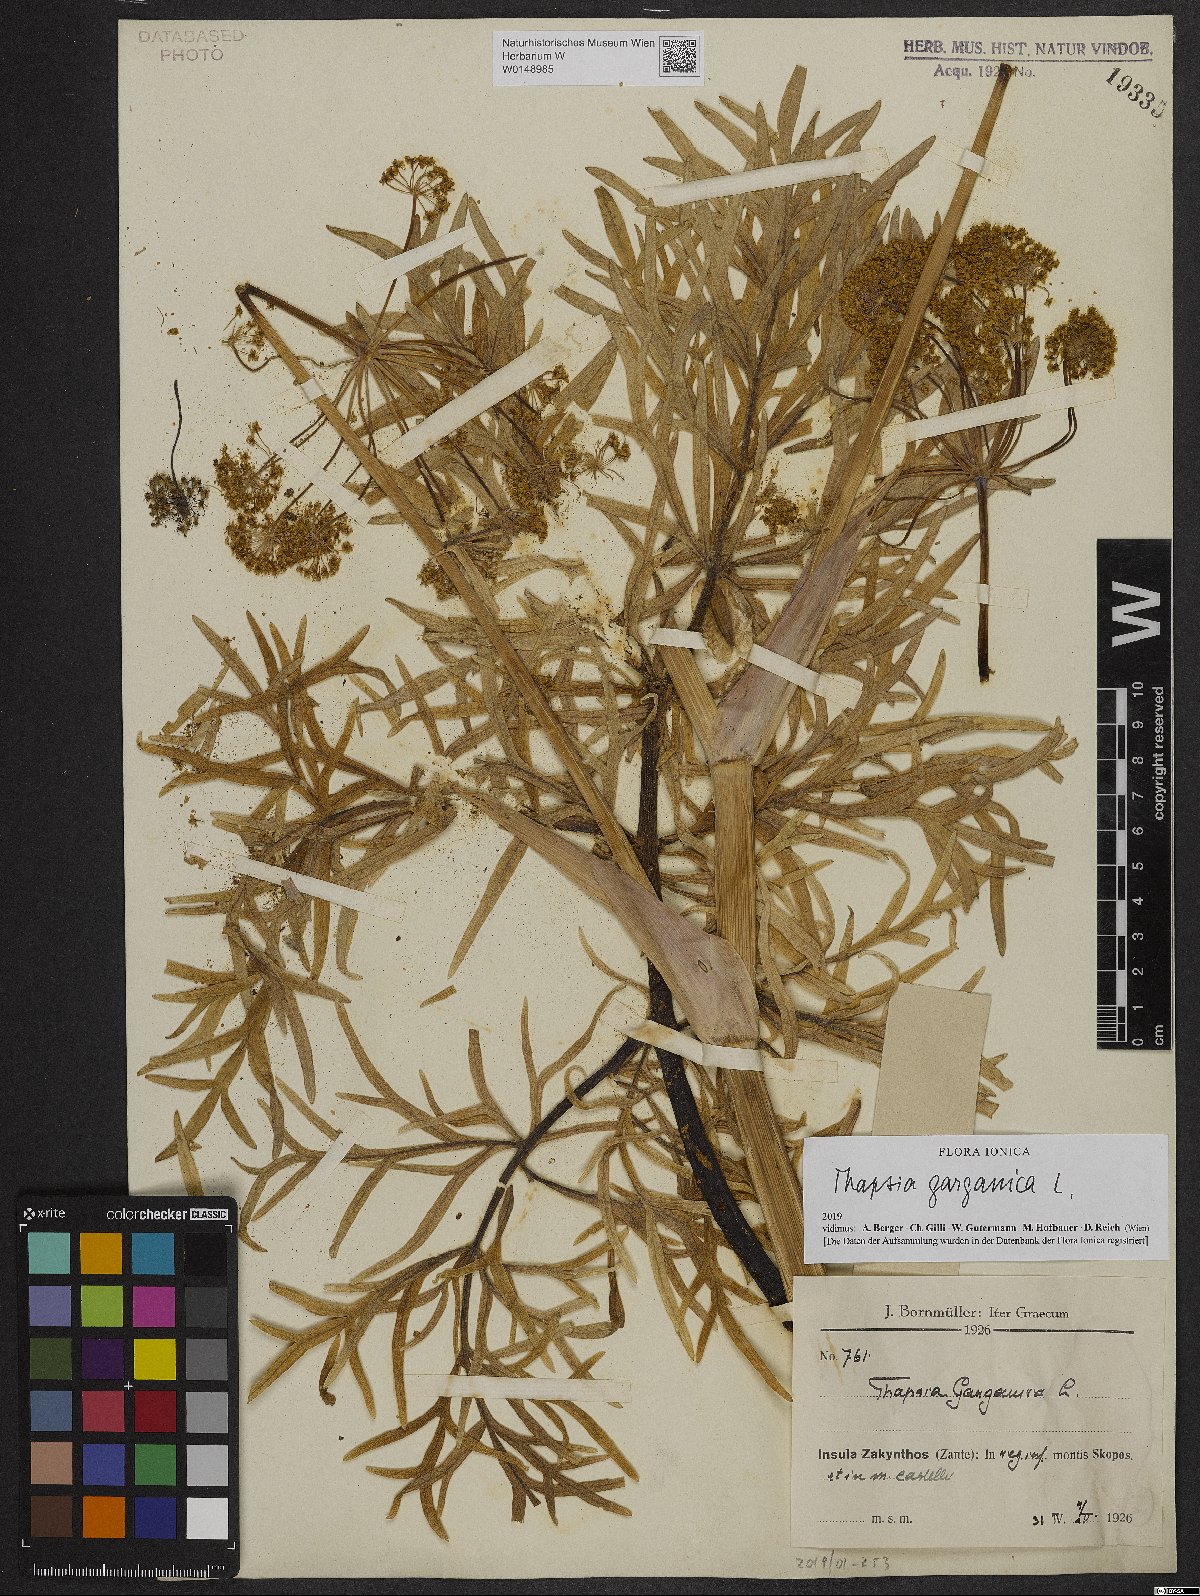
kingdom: Plantae
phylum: Tracheophyta
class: Magnoliopsida
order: Apiales
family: Apiaceae
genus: Thapsia
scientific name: Thapsia garganica
